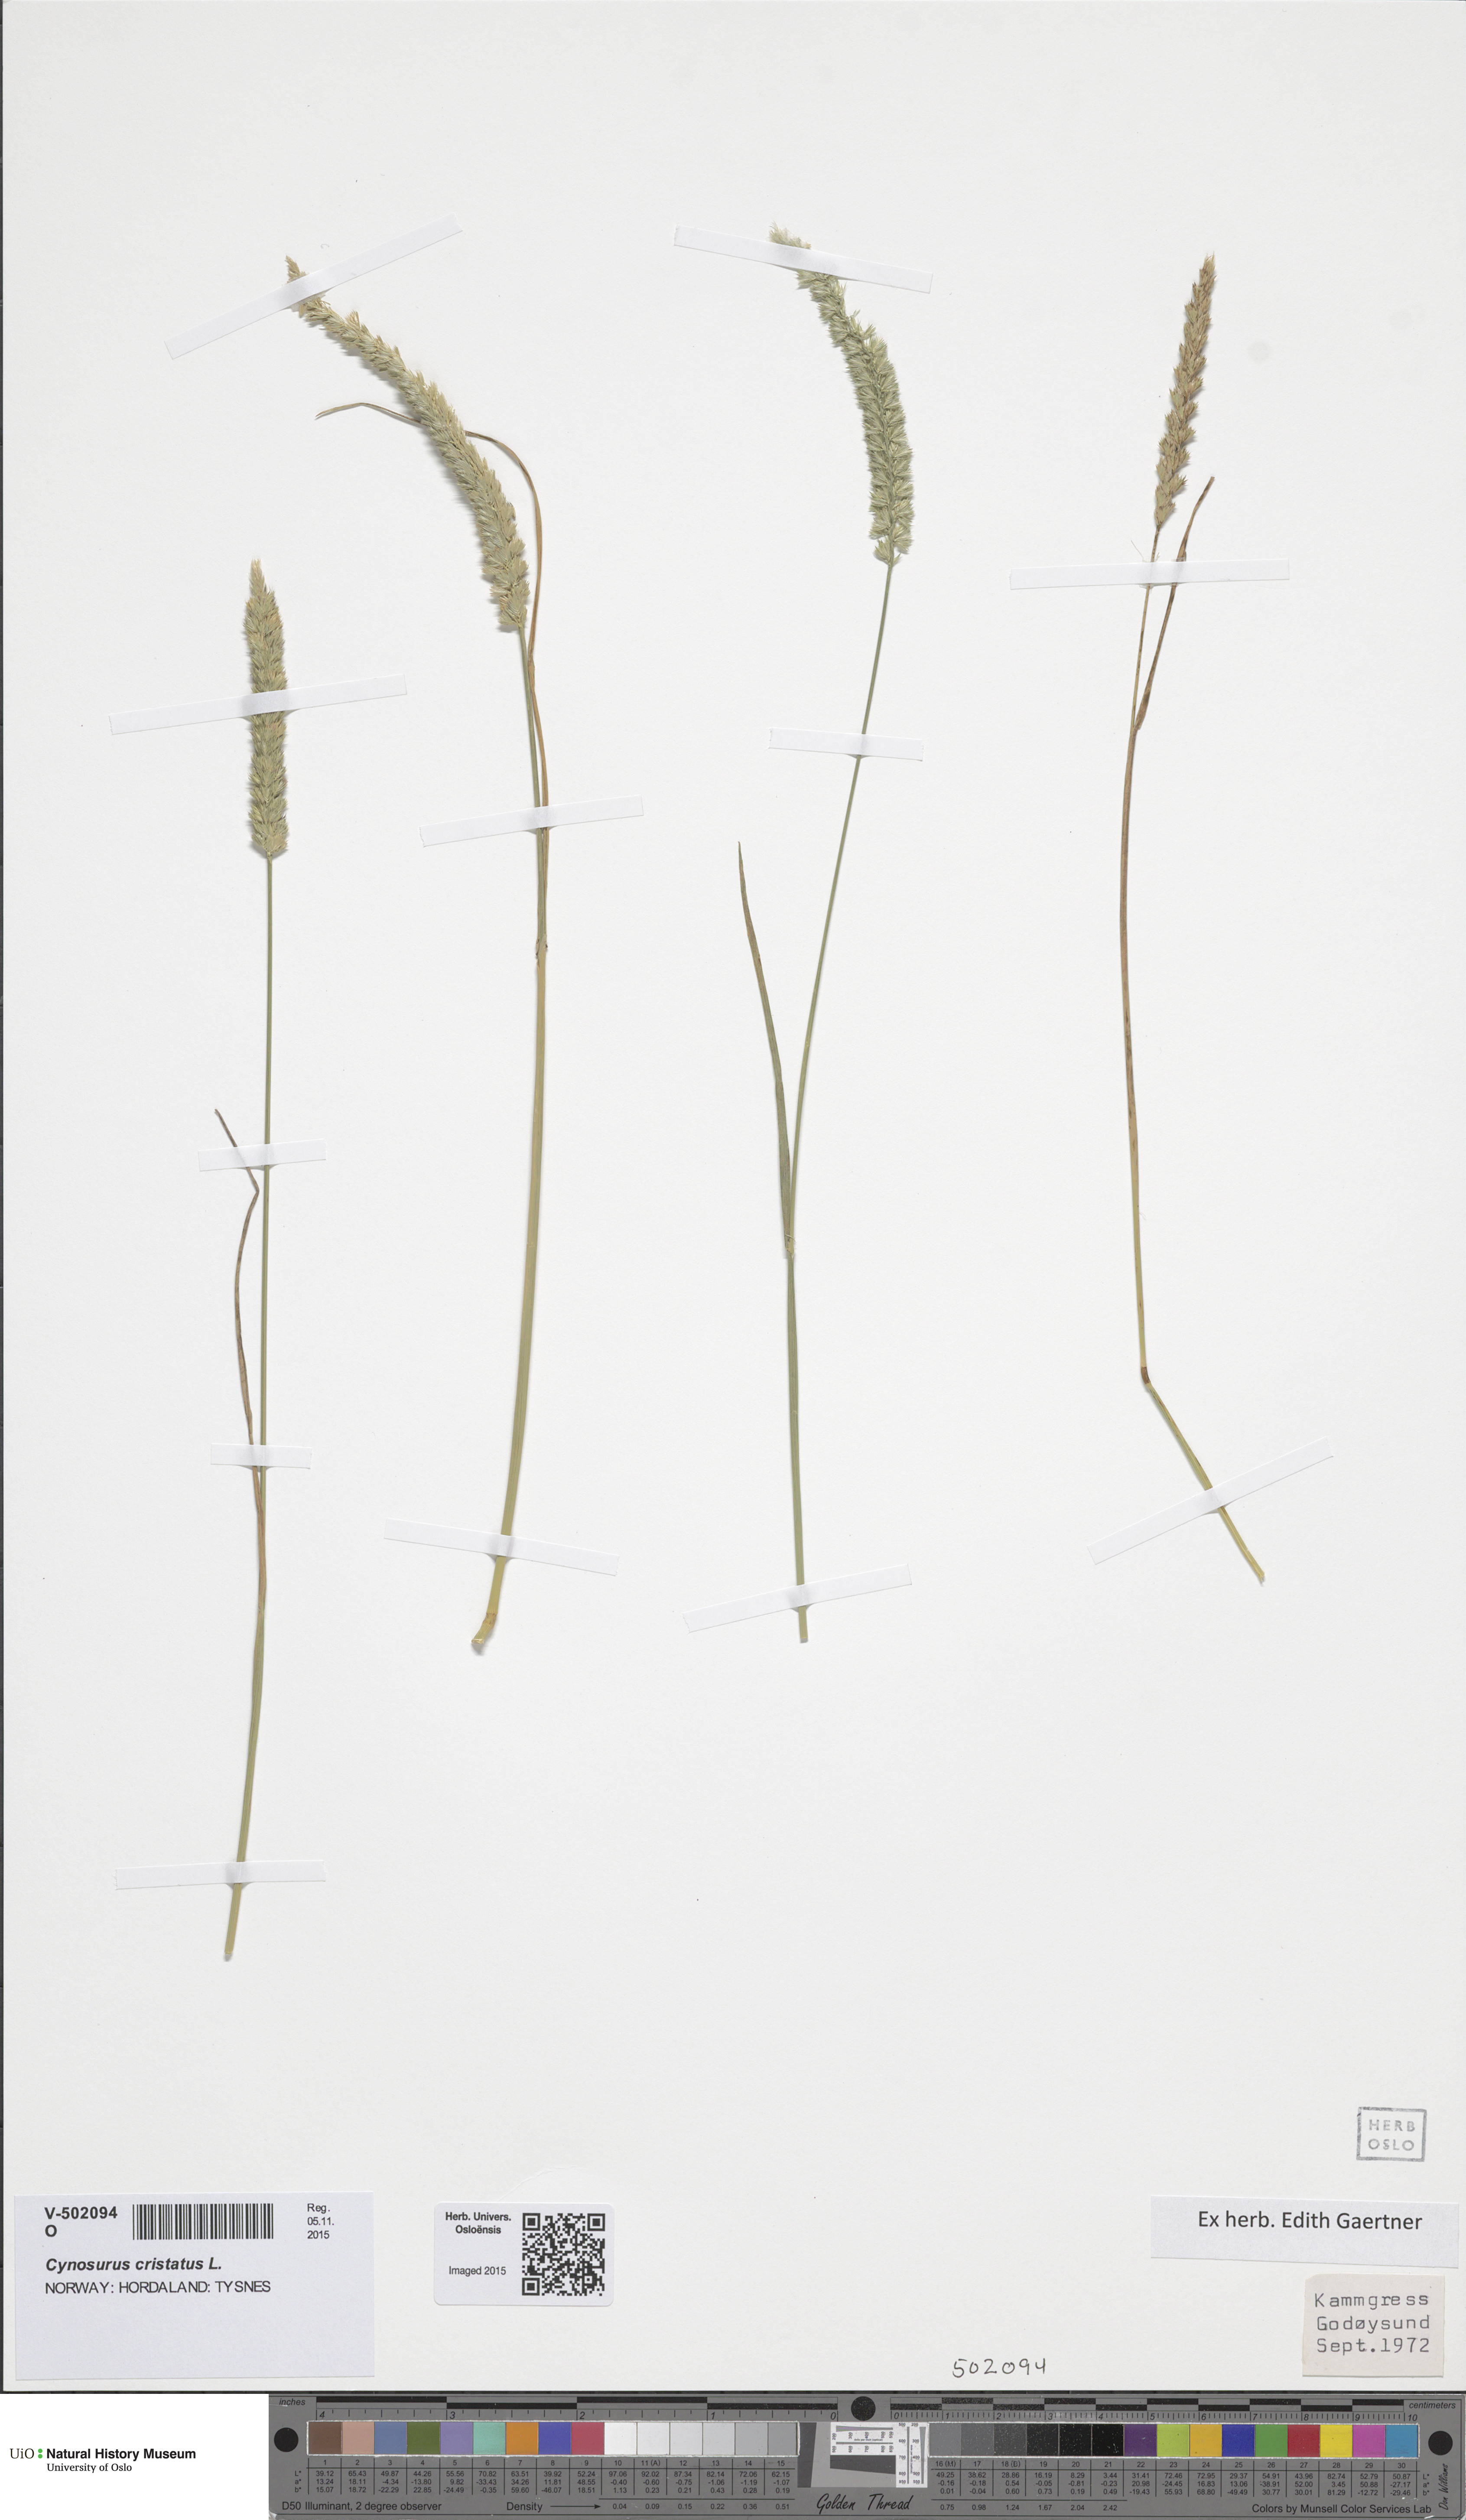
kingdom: Plantae
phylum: Tracheophyta
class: Liliopsida
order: Poales
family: Poaceae
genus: Cynosurus
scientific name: Cynosurus cristatus
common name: Crested dog's-tail
